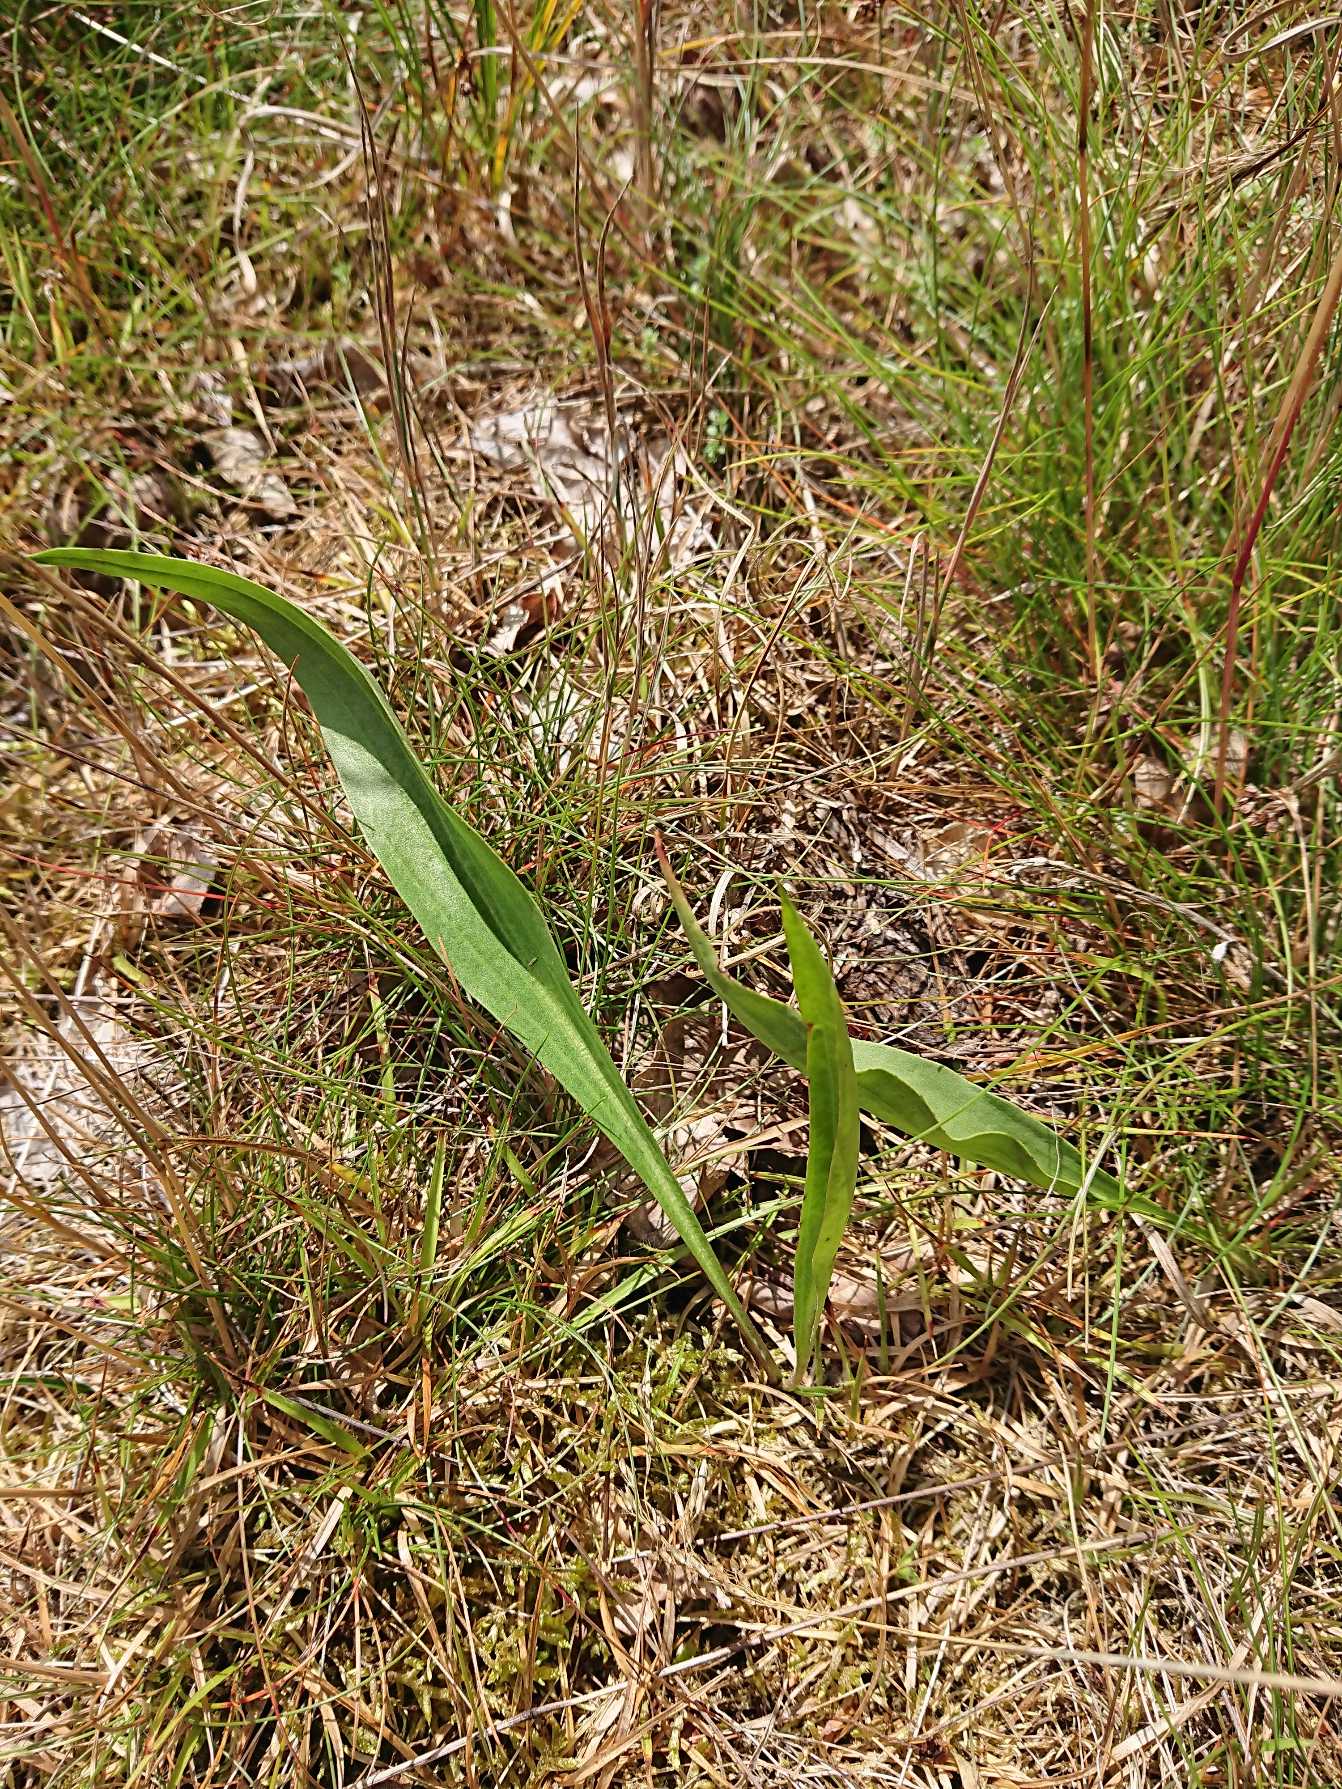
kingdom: Plantae
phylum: Tracheophyta
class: Magnoliopsida
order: Asterales
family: Asteraceae
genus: Scorzonera
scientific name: Scorzonera humilis
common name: Lav skorsoner
